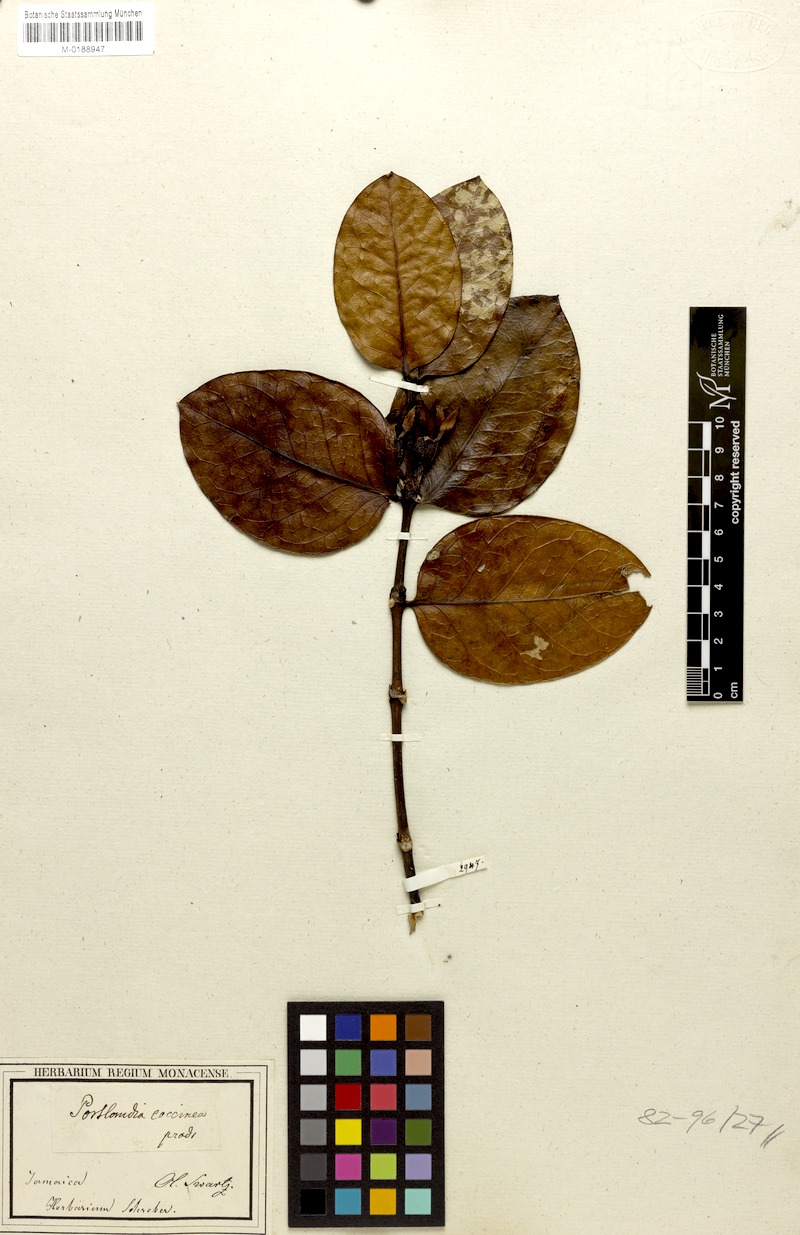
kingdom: Plantae
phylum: Tracheophyta
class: Magnoliopsida
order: Gentianales
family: Rubiaceae
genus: Portlandia
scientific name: Portlandia coccinea
